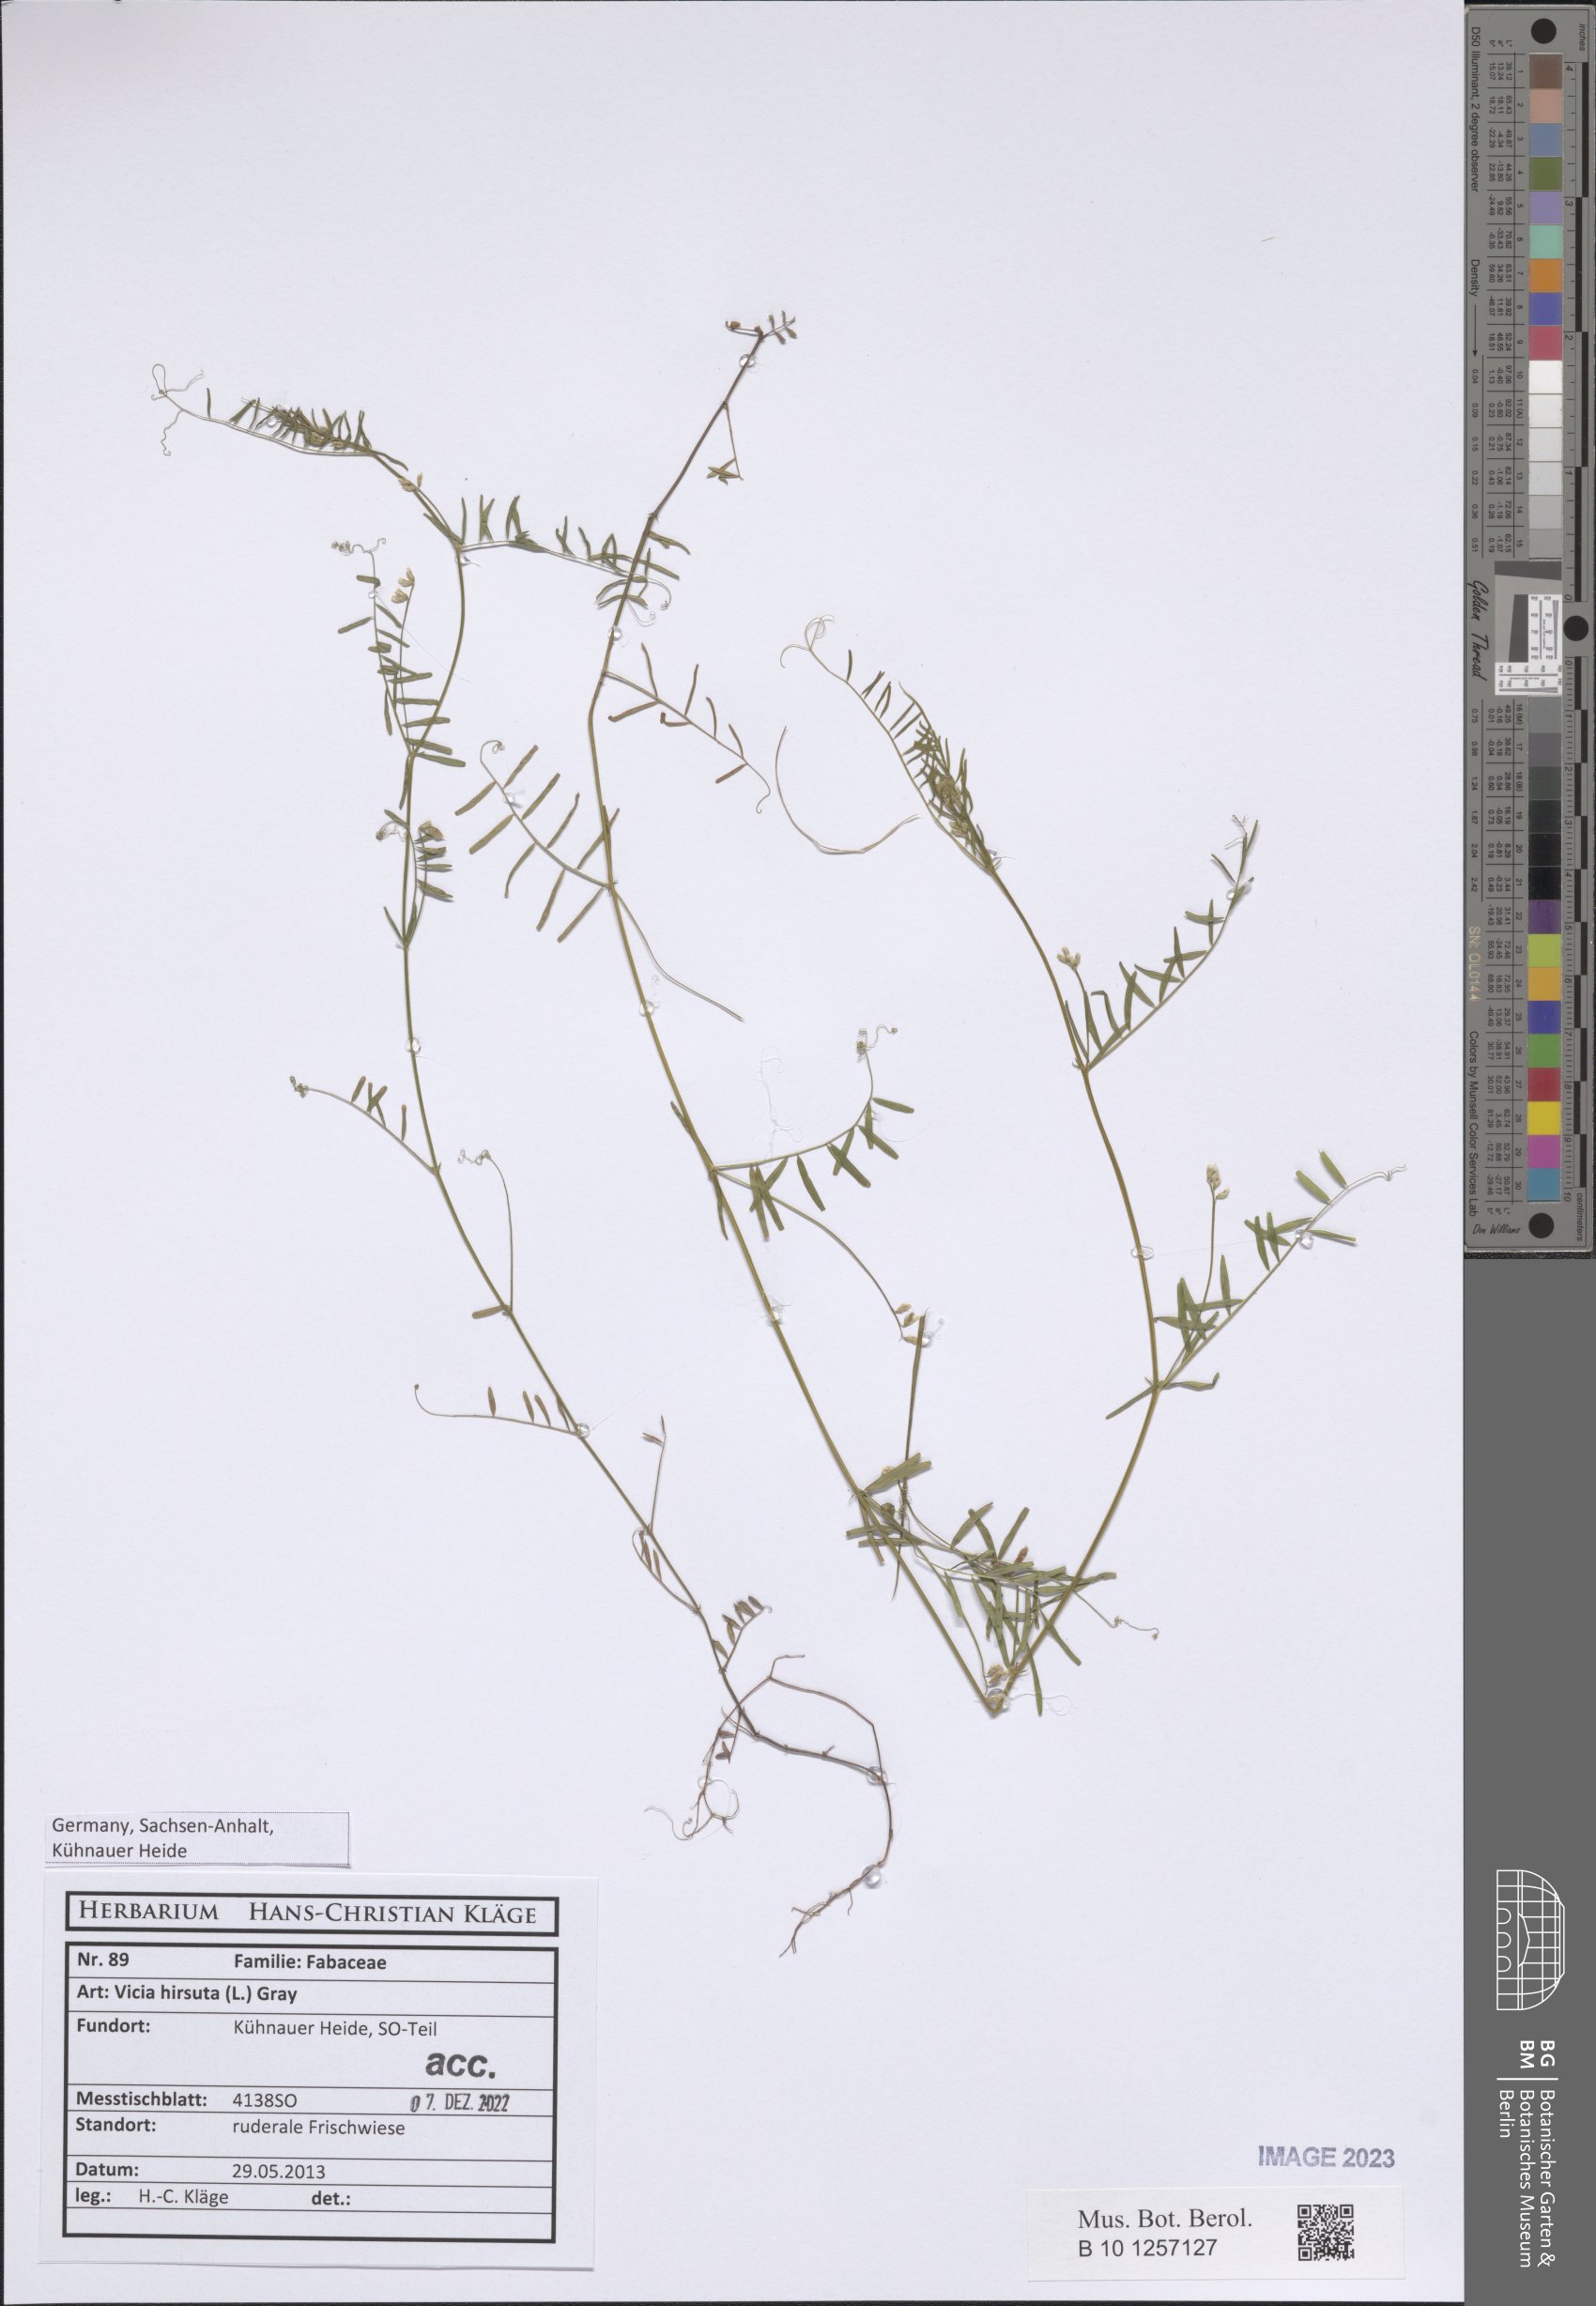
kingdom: Plantae
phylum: Tracheophyta
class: Magnoliopsida
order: Fabales
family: Fabaceae
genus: Vicia
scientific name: Vicia hirsuta
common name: Tiny vetch
